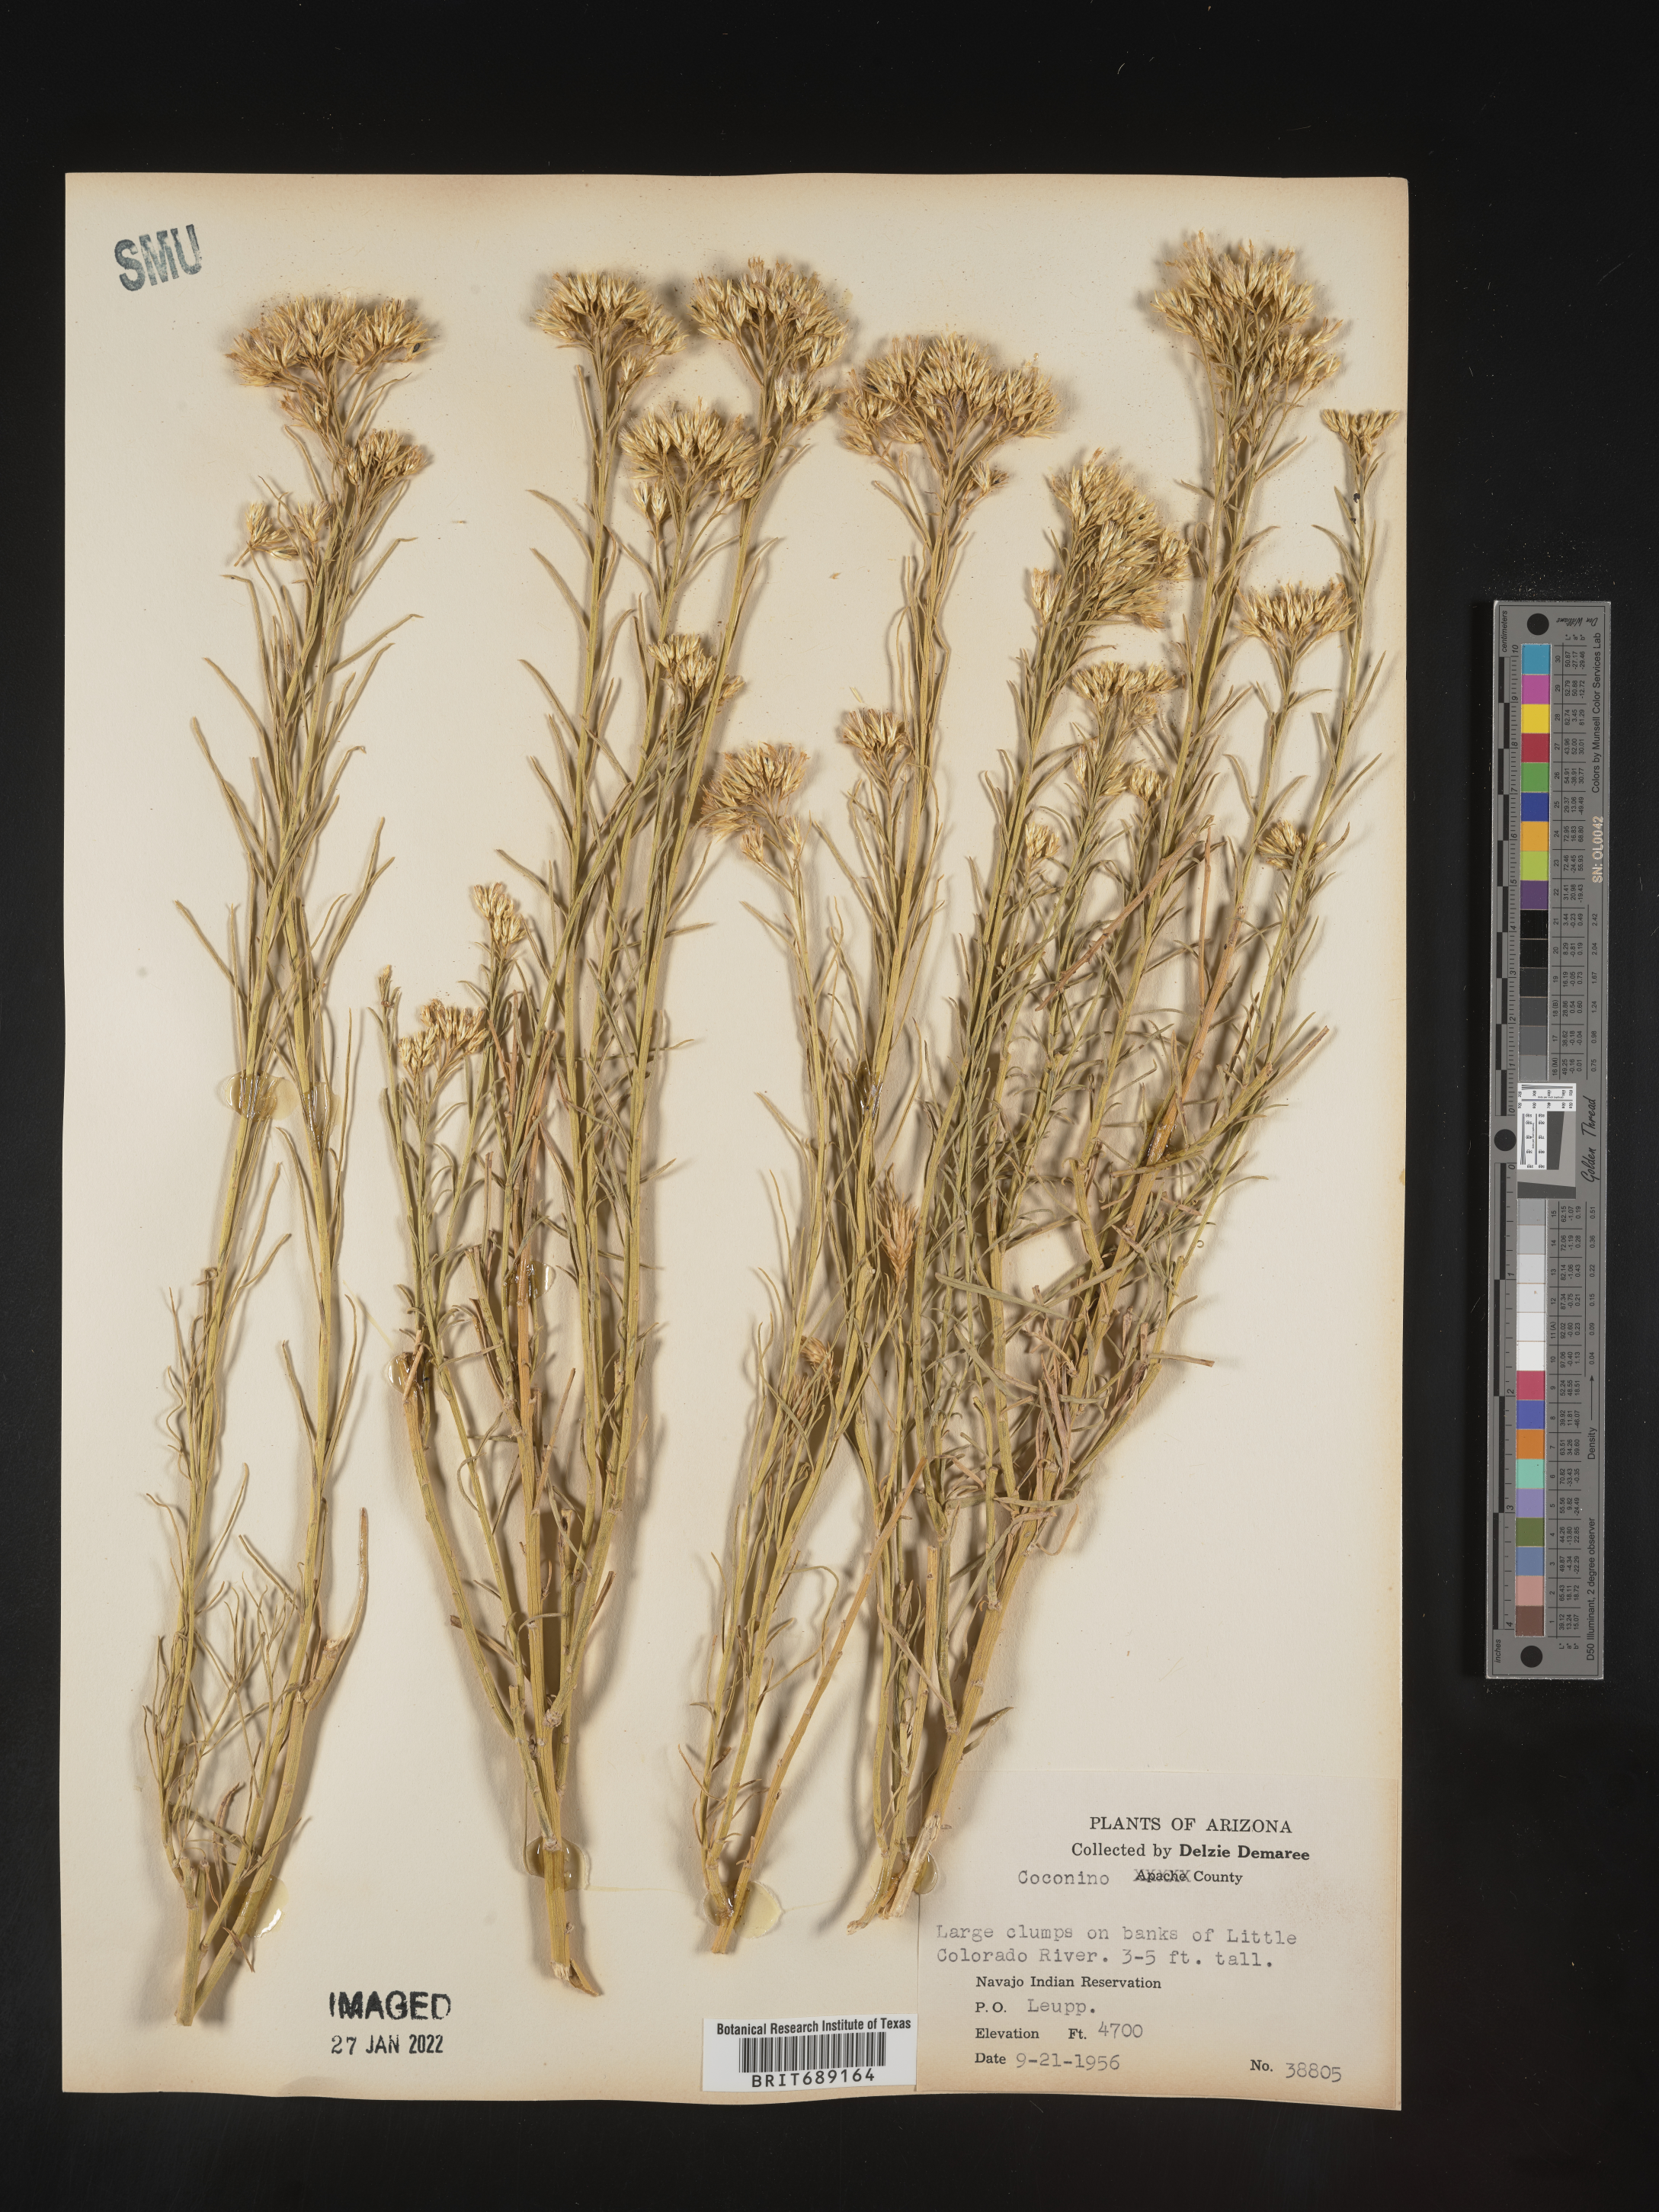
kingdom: Plantae
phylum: Tracheophyta
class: Magnoliopsida
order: Asterales
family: Asteraceae
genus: Chrysothamnus
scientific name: Chrysothamnus
